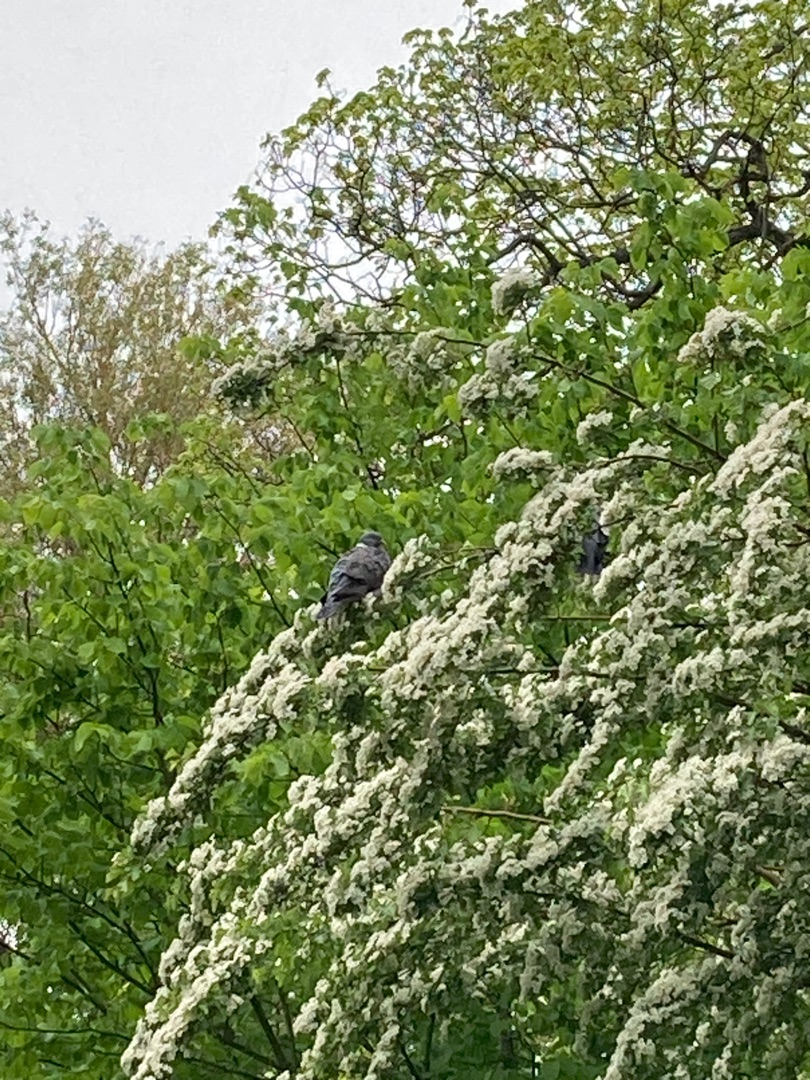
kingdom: Animalia
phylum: Chordata
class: Aves
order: Columbiformes
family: Columbidae
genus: Columba
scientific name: Columba palumbus
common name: Ringdue
